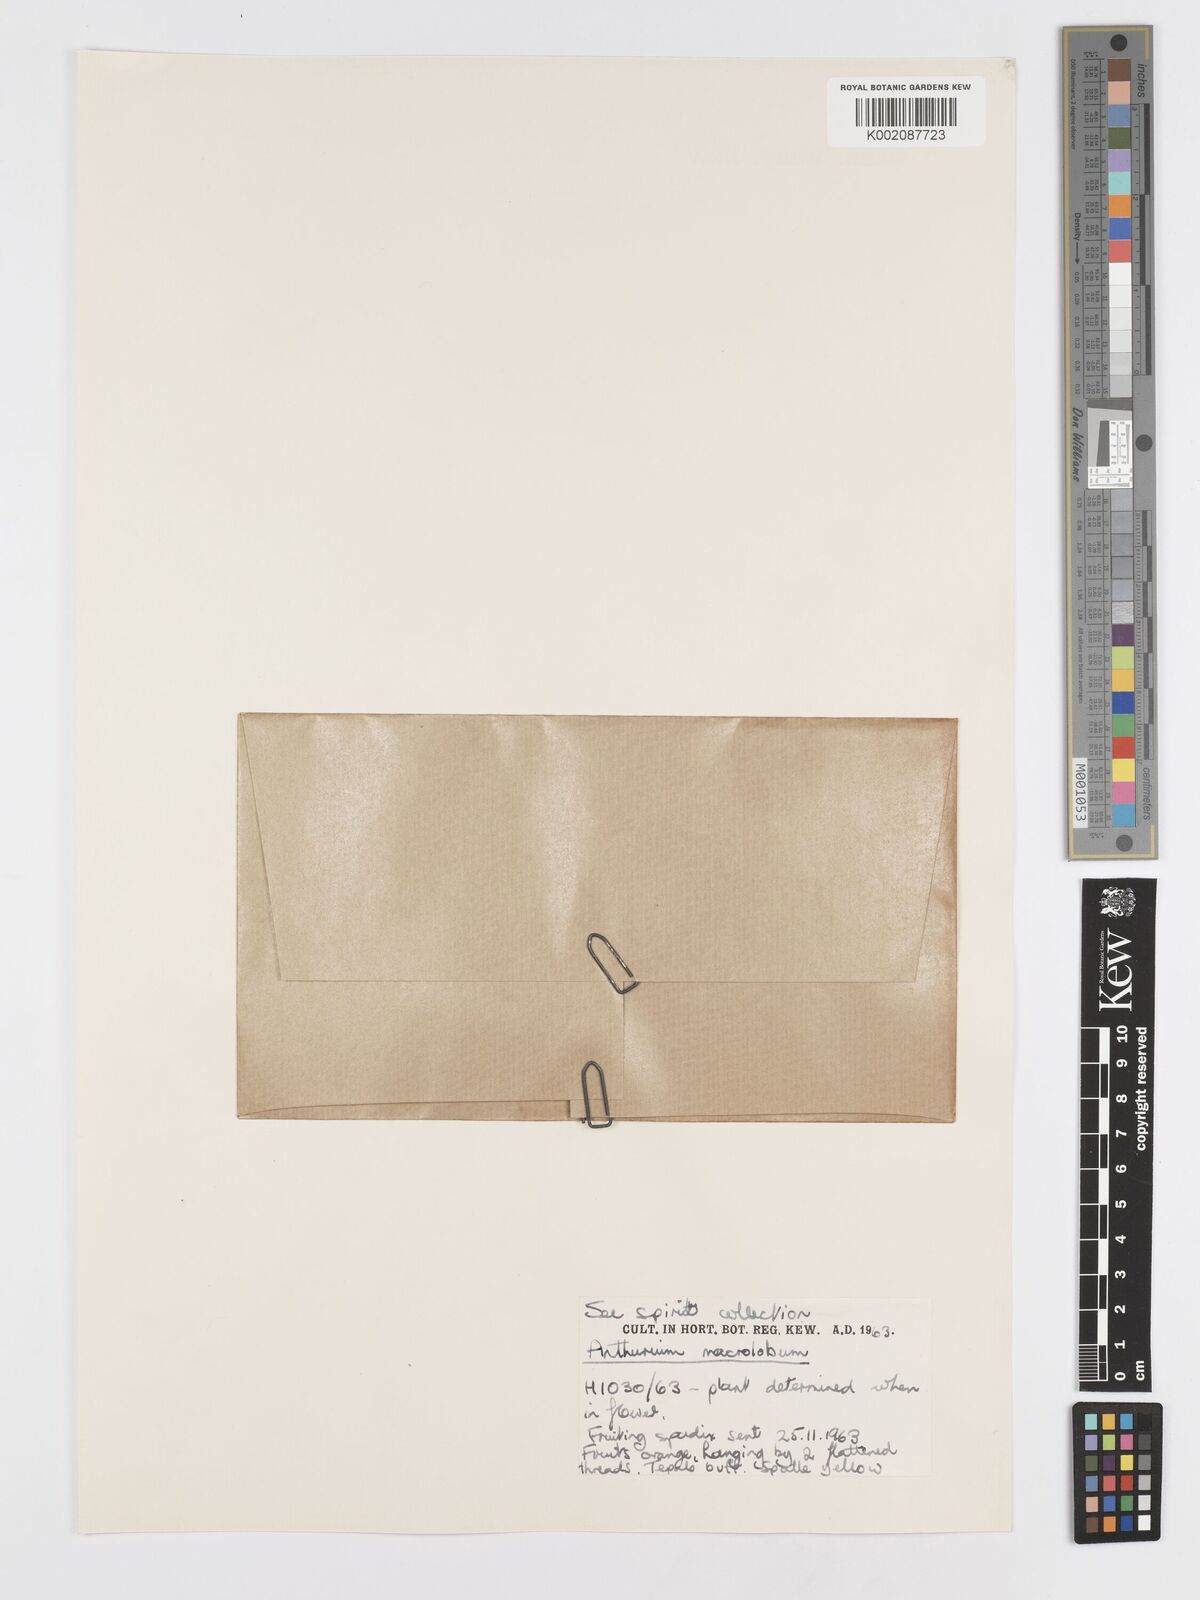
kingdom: Plantae
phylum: Tracheophyta
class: Liliopsida
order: Alismatales
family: Araceae
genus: Anthurium
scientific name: Anthurium leuconeurum
